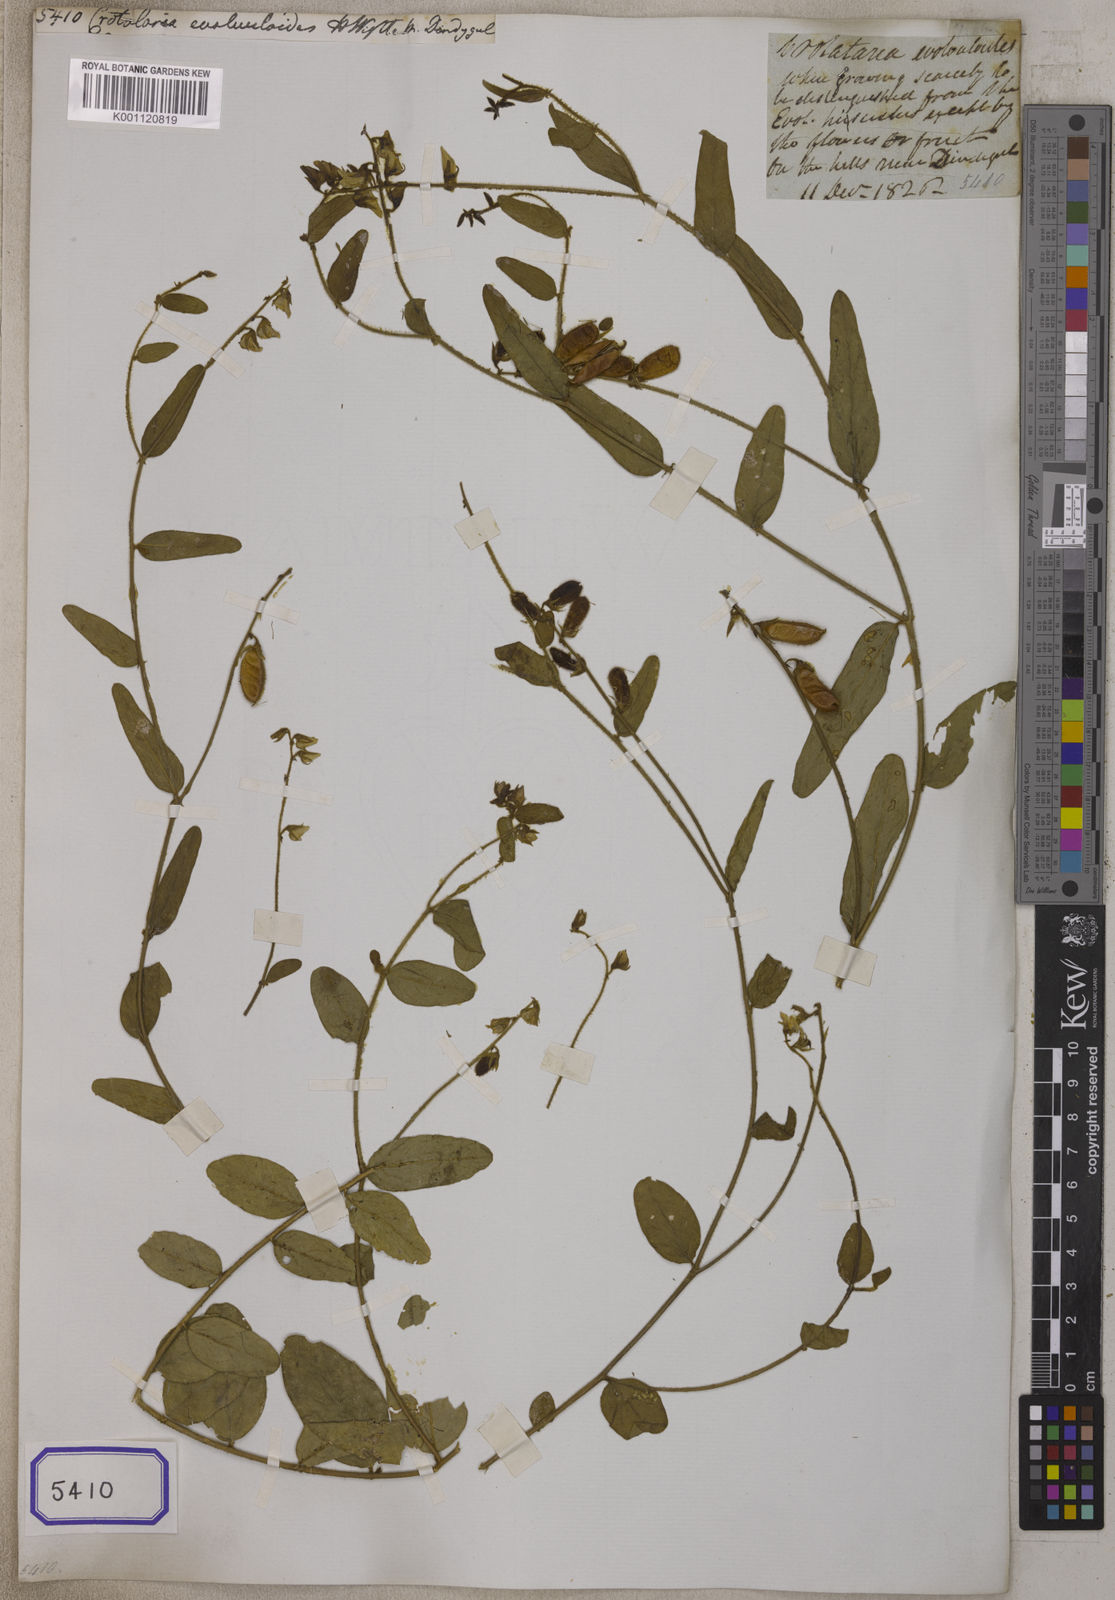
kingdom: Plantae
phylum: Tracheophyta
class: Magnoliopsida
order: Fabales
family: Fabaceae
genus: Crotalaria
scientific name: Crotalaria evolvuloides
